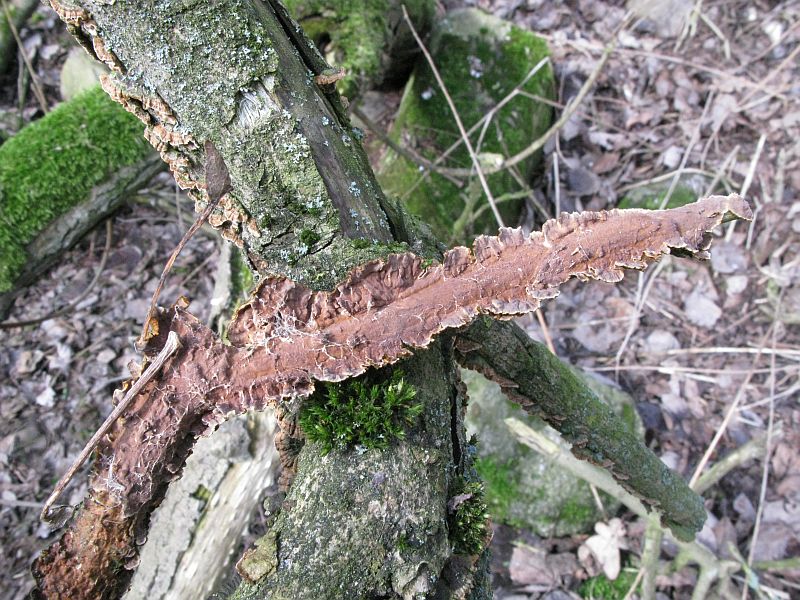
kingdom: Fungi
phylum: Basidiomycota
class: Agaricomycetes
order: Hymenochaetales
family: Hymenochaetaceae
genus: Hydnoporia
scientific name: Hydnoporia tabacina
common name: tobaksbrun ruslædersvamp
